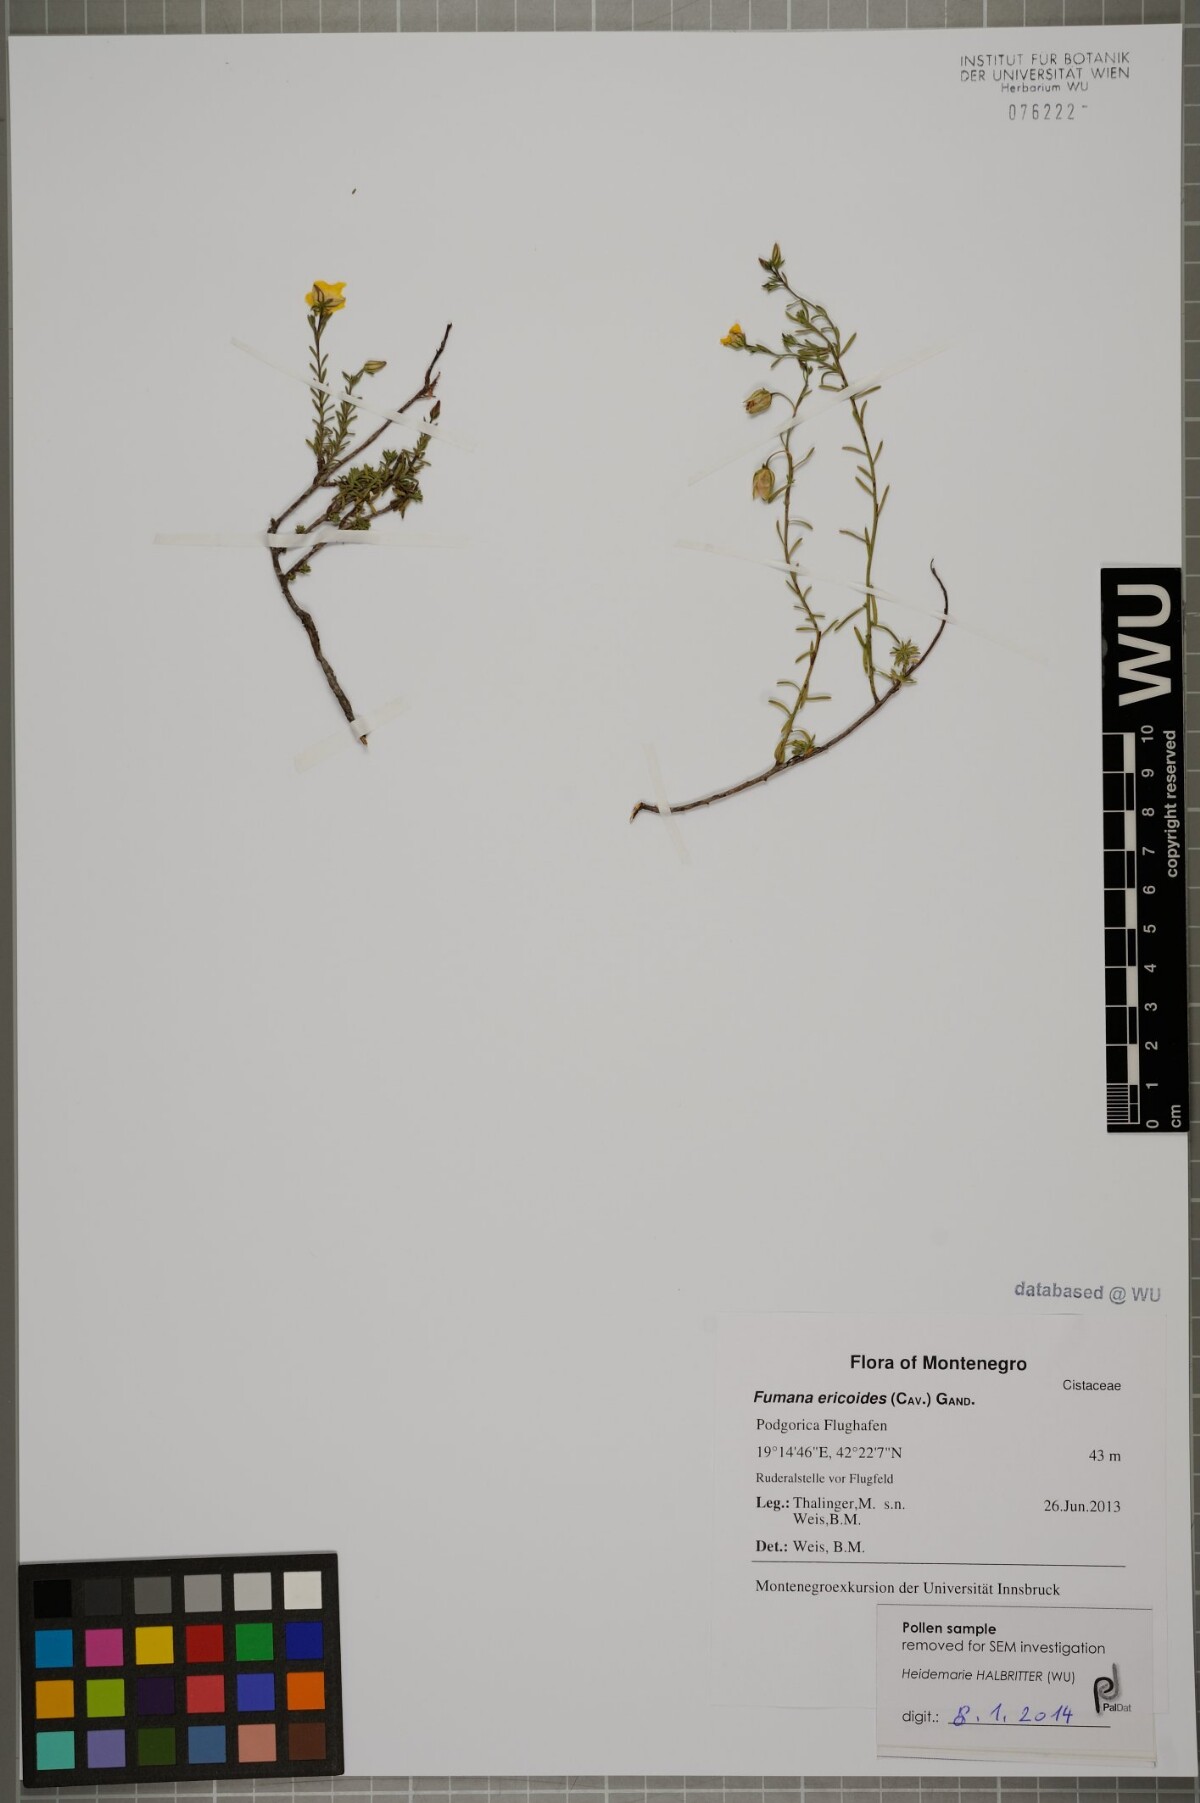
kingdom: Plantae
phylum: Tracheophyta
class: Magnoliopsida
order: Malvales
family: Cistaceae
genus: Fumana
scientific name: Fumana ericoides
